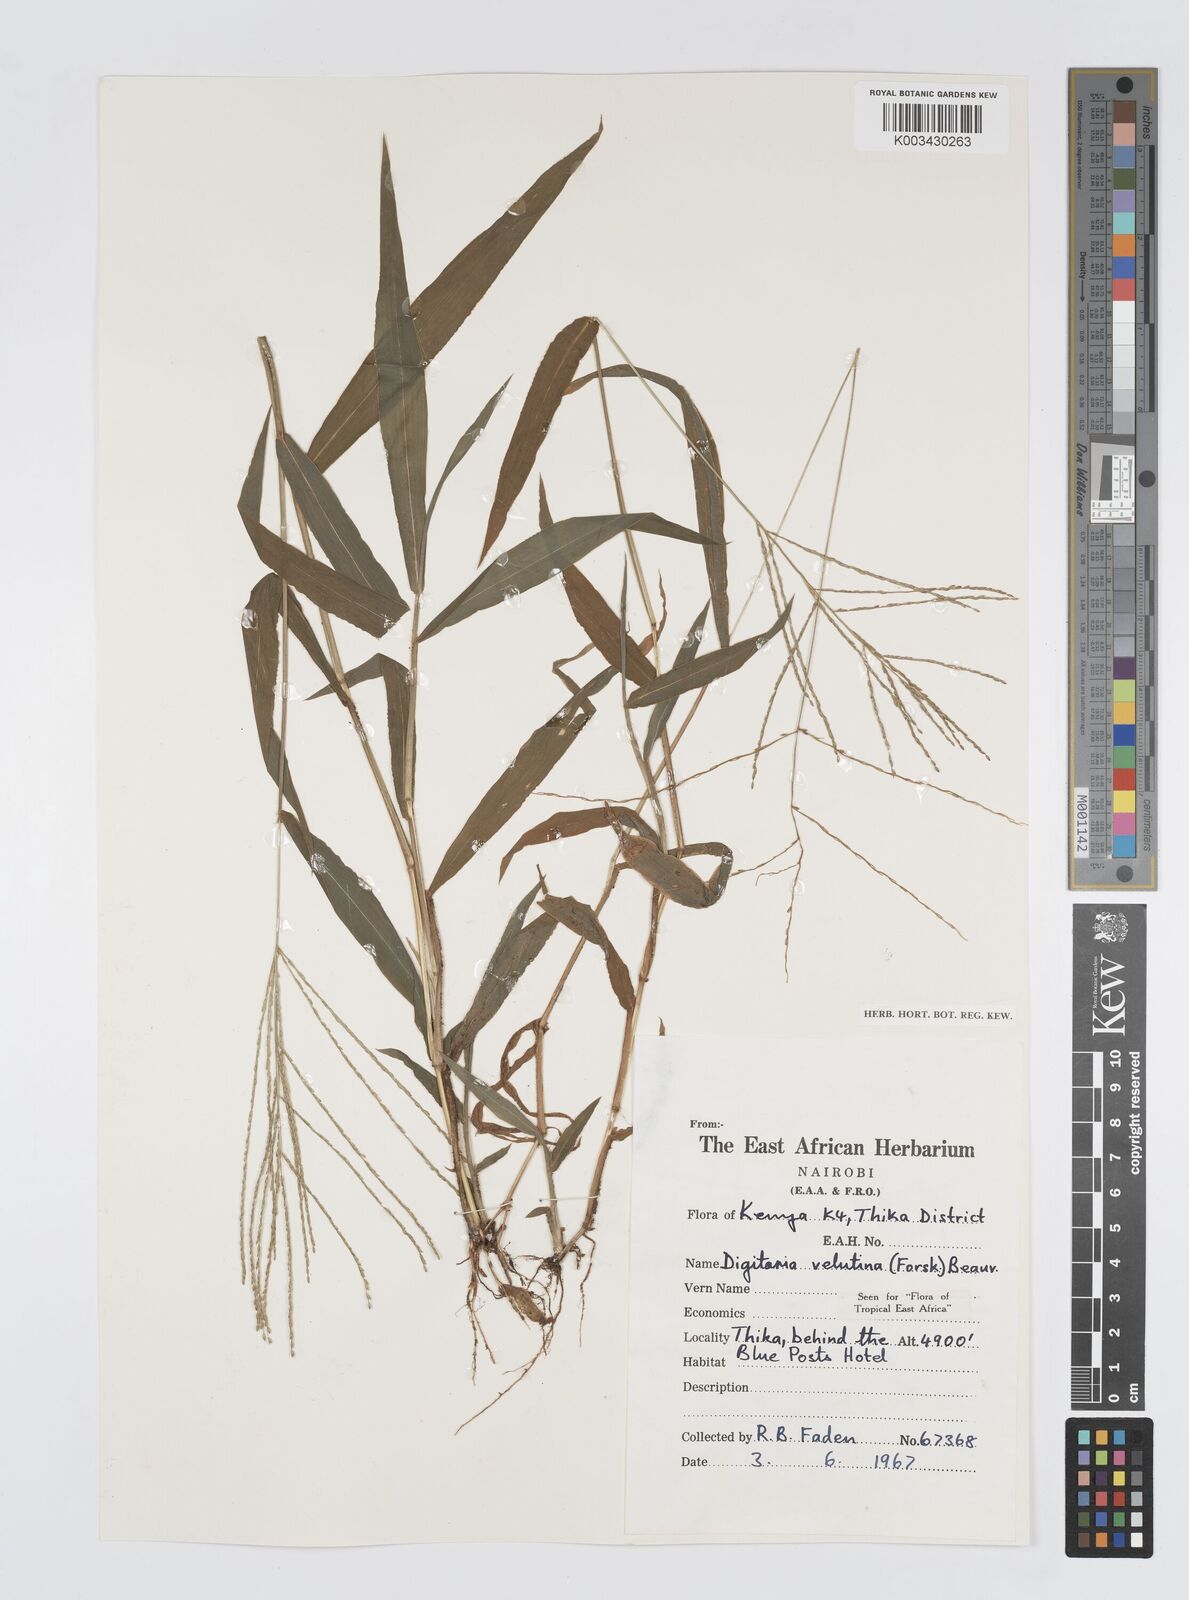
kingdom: Plantae
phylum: Tracheophyta
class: Liliopsida
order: Poales
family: Poaceae
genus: Digitaria
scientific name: Digitaria velutina
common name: Long-plume finger grass
